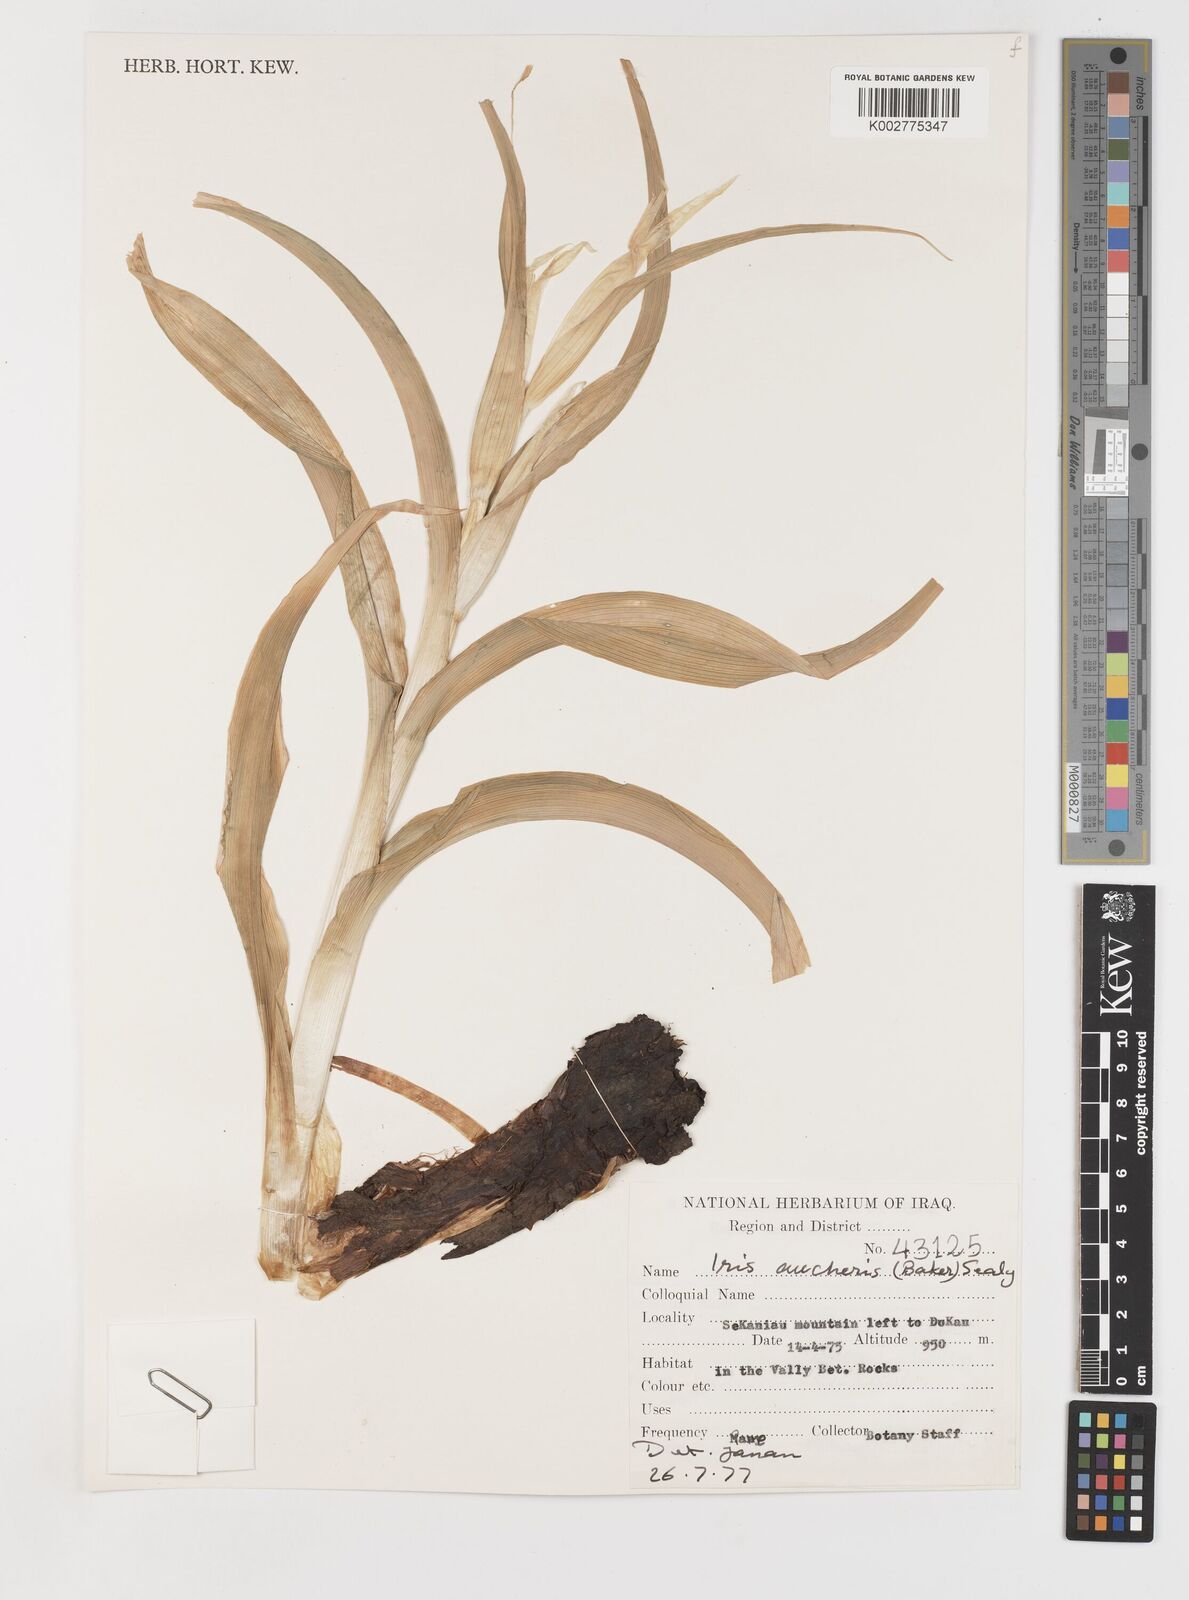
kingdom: Plantae
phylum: Tracheophyta
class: Liliopsida
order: Asparagales
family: Iridaceae
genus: Iris
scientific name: Iris aucheri
